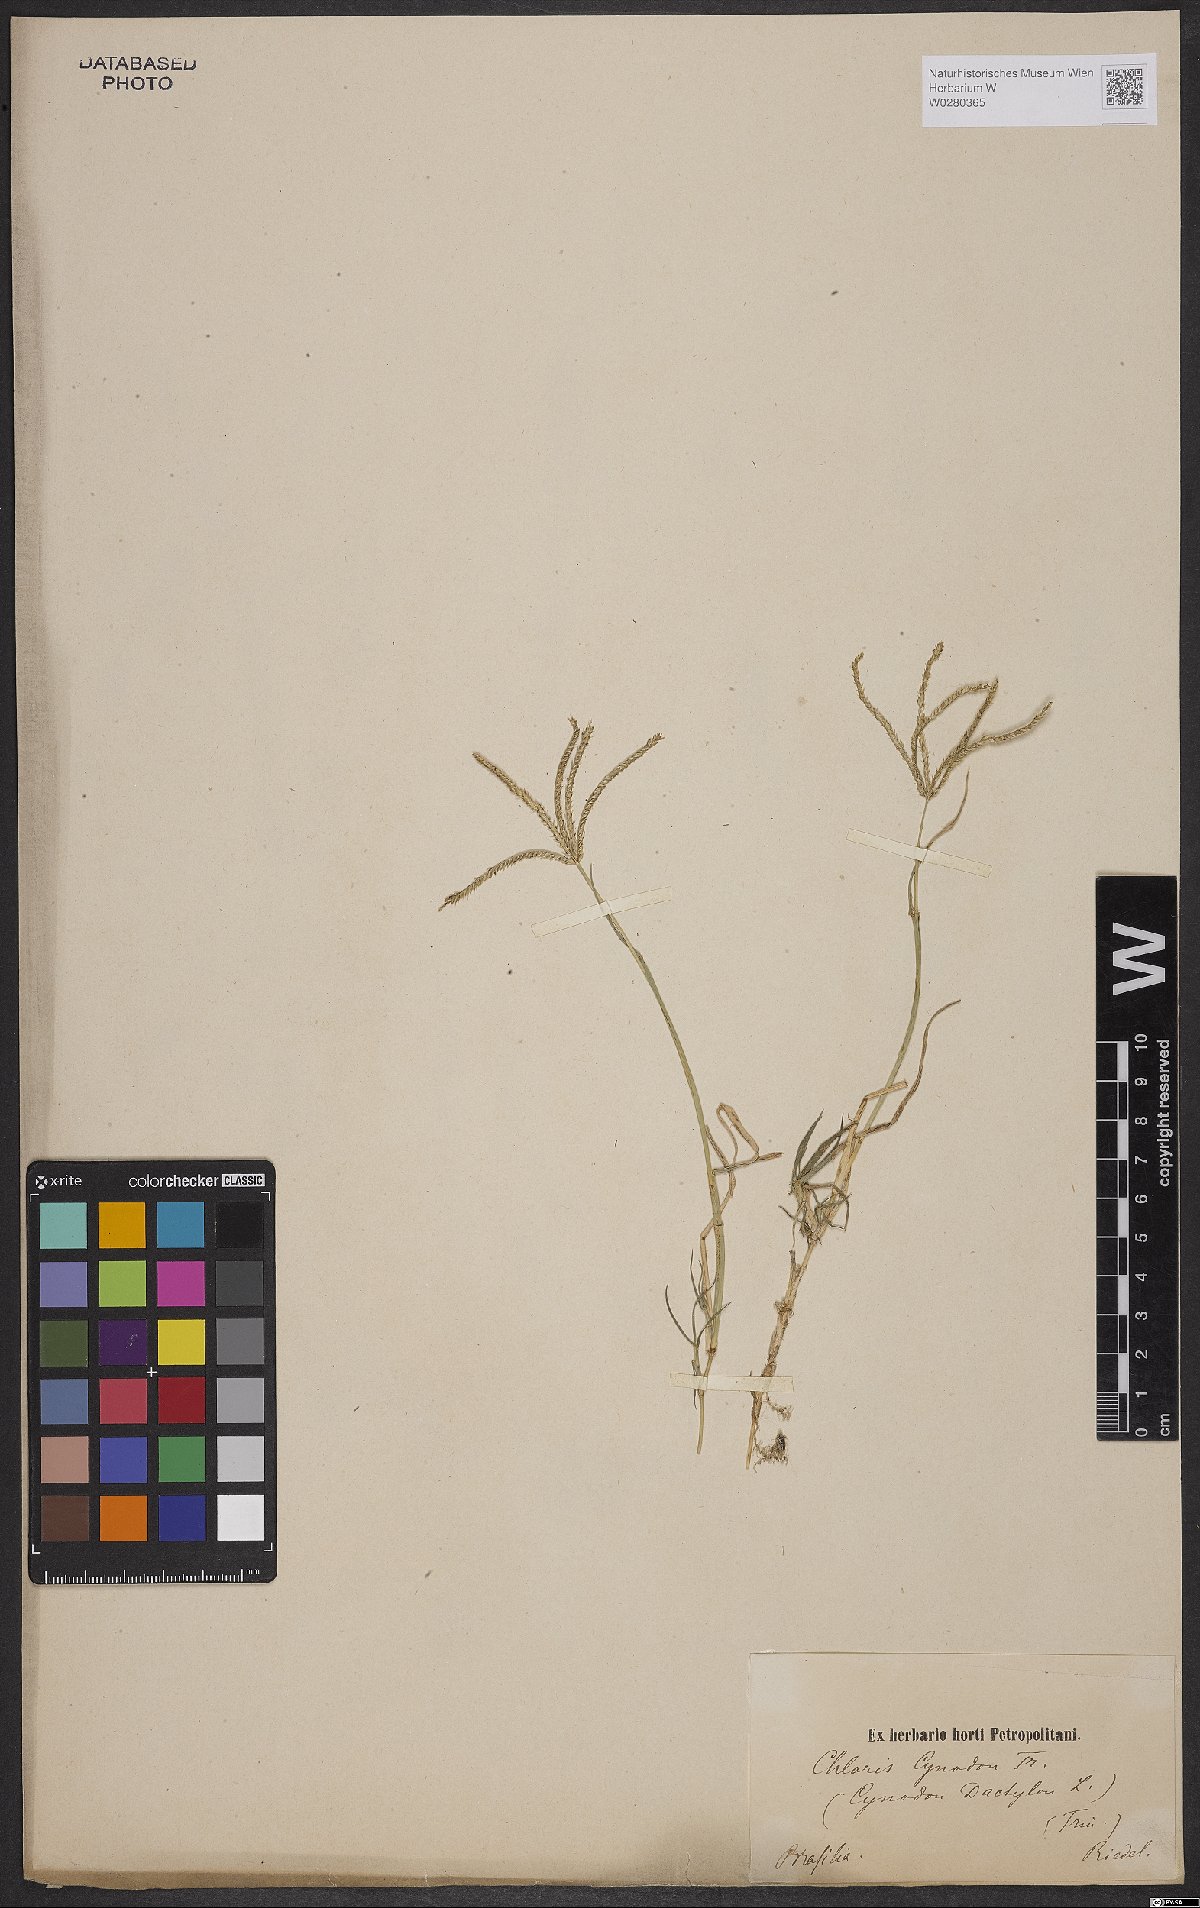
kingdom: Plantae
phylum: Tracheophyta
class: Liliopsida
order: Poales
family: Poaceae
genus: Cynodon
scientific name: Cynodon dactylon
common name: Bermuda grass
